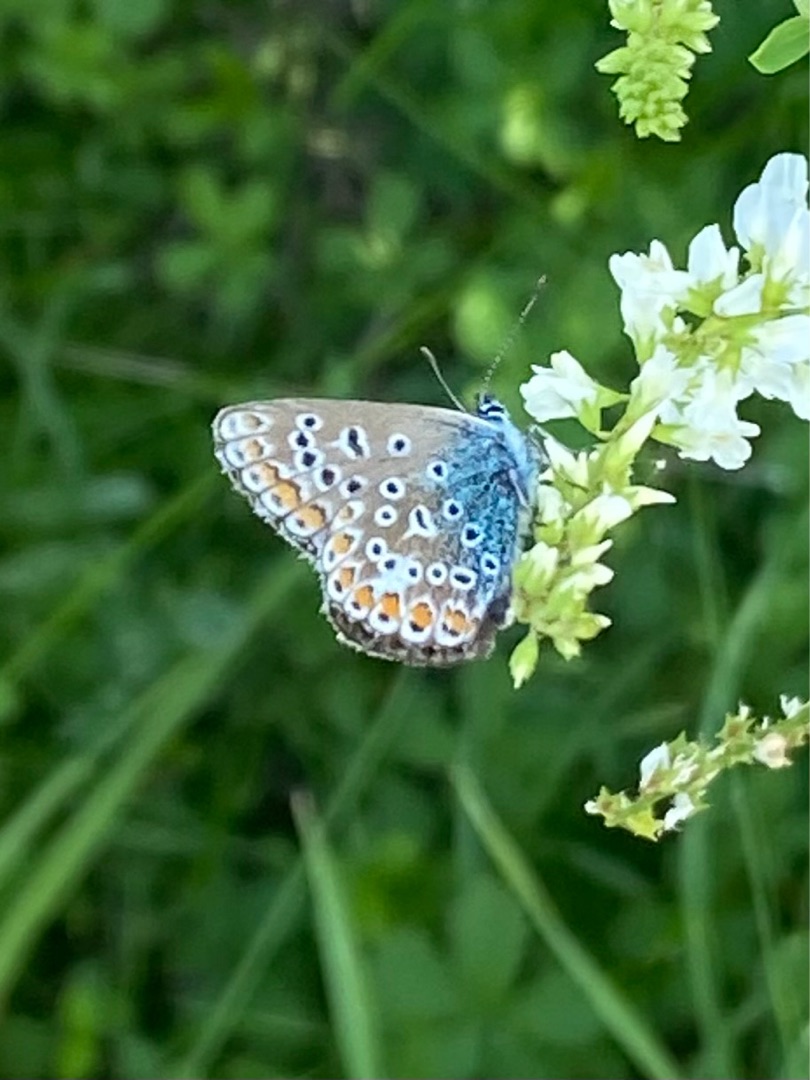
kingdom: Animalia
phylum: Arthropoda
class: Insecta
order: Lepidoptera
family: Lycaenidae
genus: Polyommatus
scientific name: Polyommatus icarus
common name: Almindelig blåfugl
